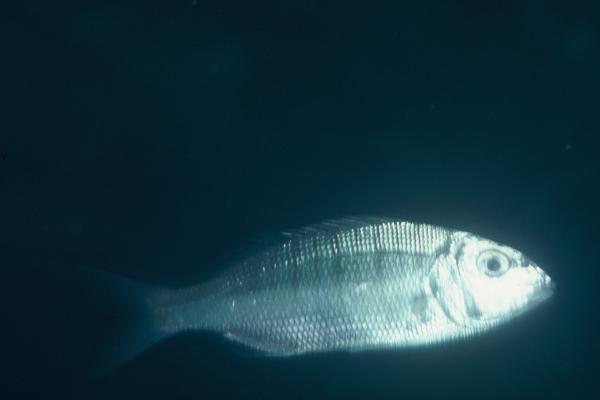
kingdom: Animalia
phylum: Chordata
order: Perciformes
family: Sparidae
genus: Lithognathus
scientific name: Lithognathus mormyrus
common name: Sand steenbras
